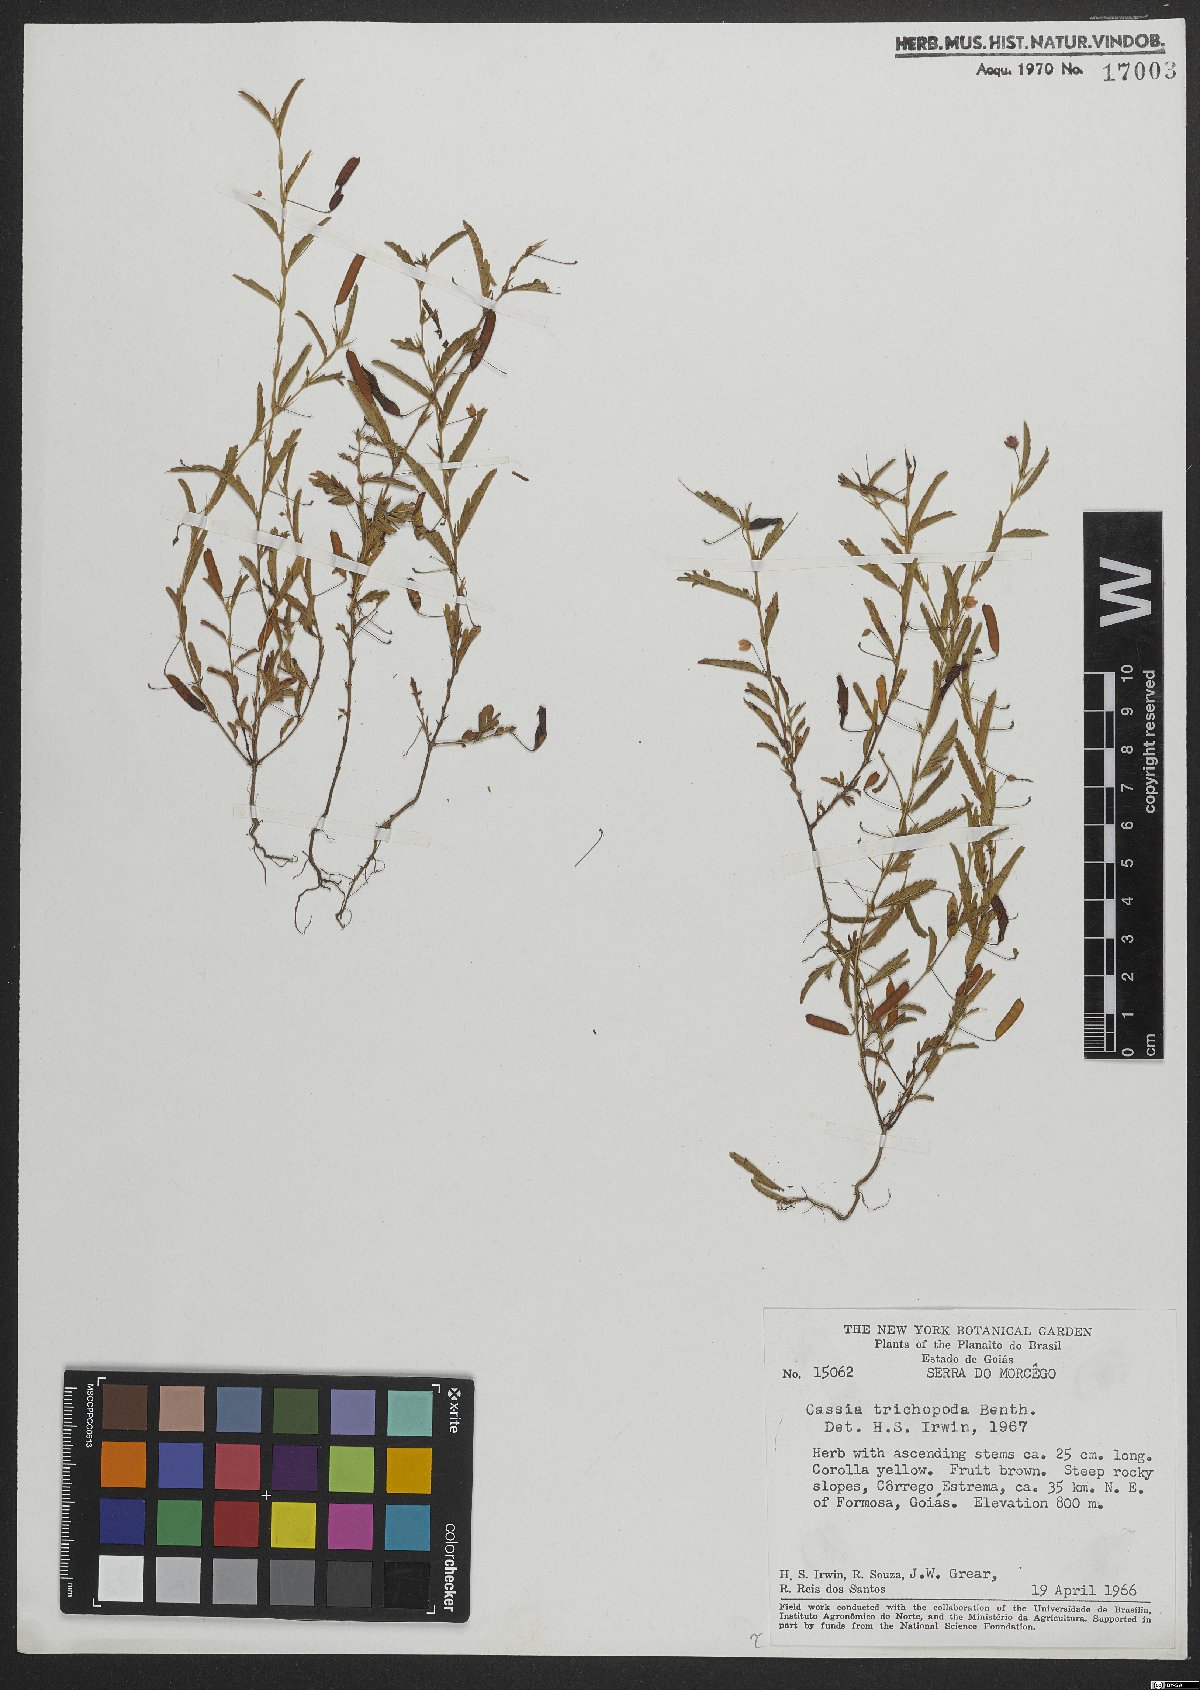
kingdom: Plantae
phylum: Tracheophyta
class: Magnoliopsida
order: Fabales
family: Fabaceae
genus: Chamaecrista
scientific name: Chamaecrista trichopoda
